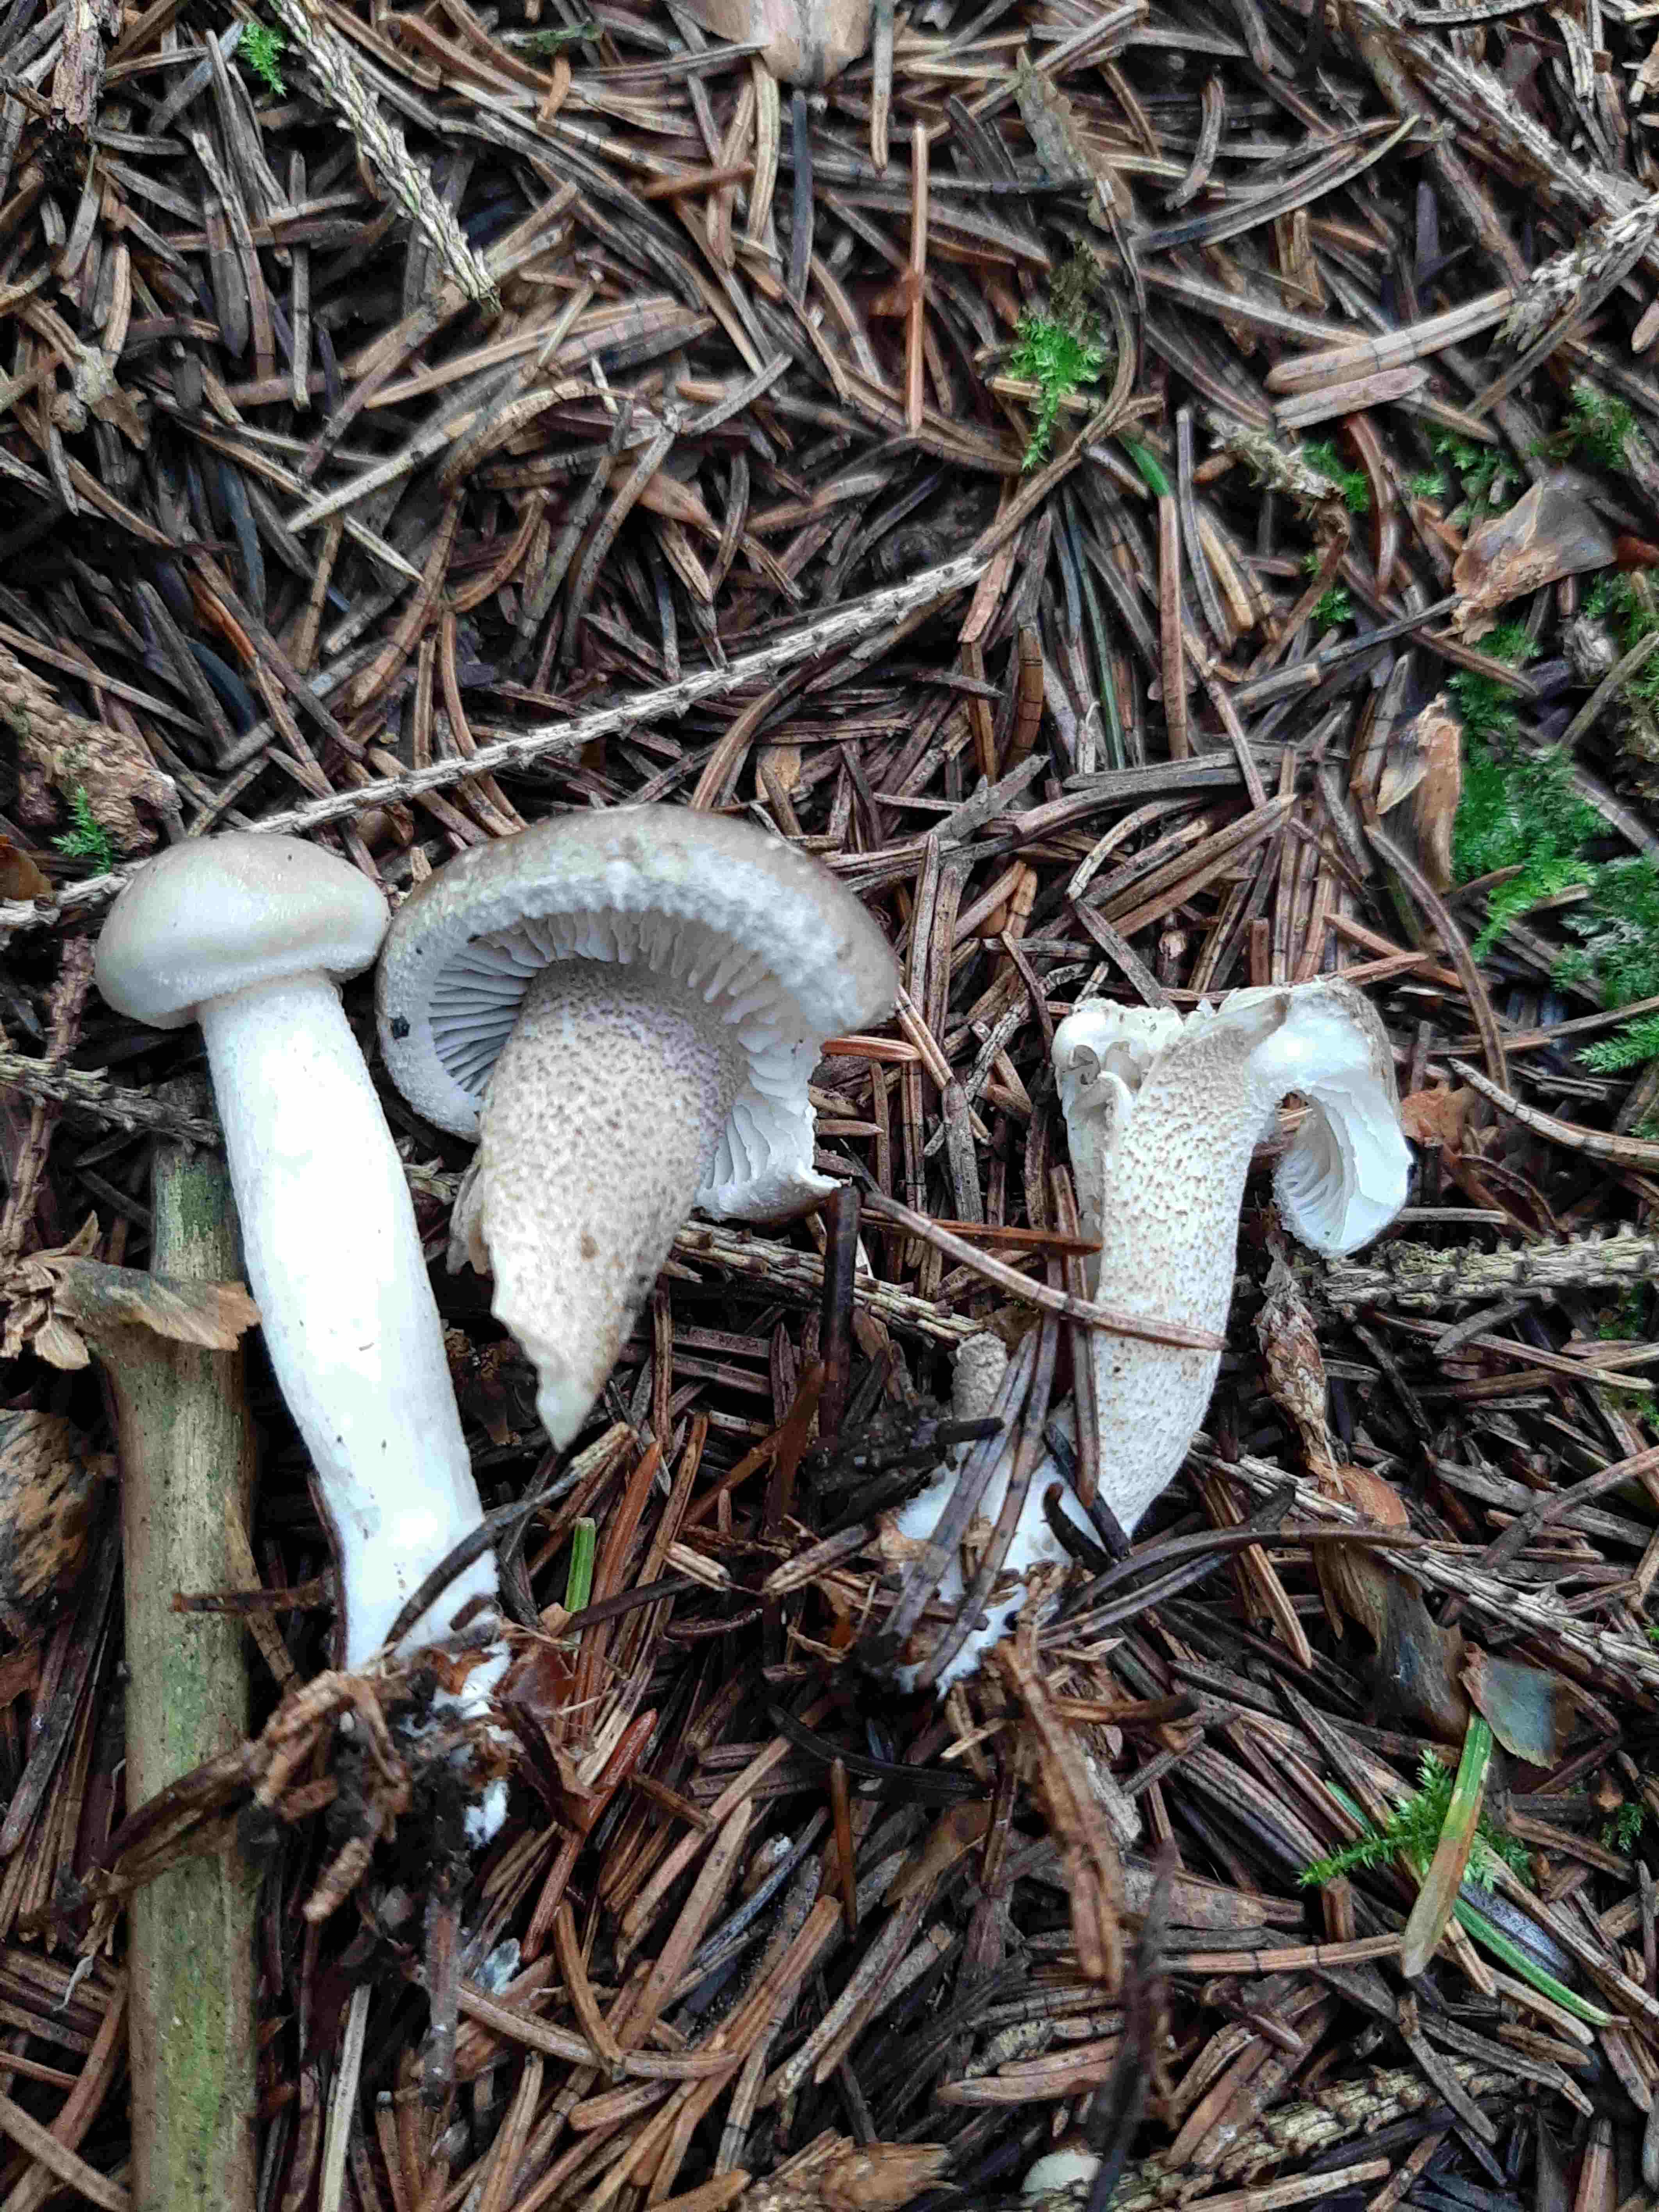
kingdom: Fungi
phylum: Basidiomycota
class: Agaricomycetes
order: Agaricales
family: Hygrophoraceae
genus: Hygrophorus
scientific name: Hygrophorus pustulatus
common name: mørkprikket sneglehat
